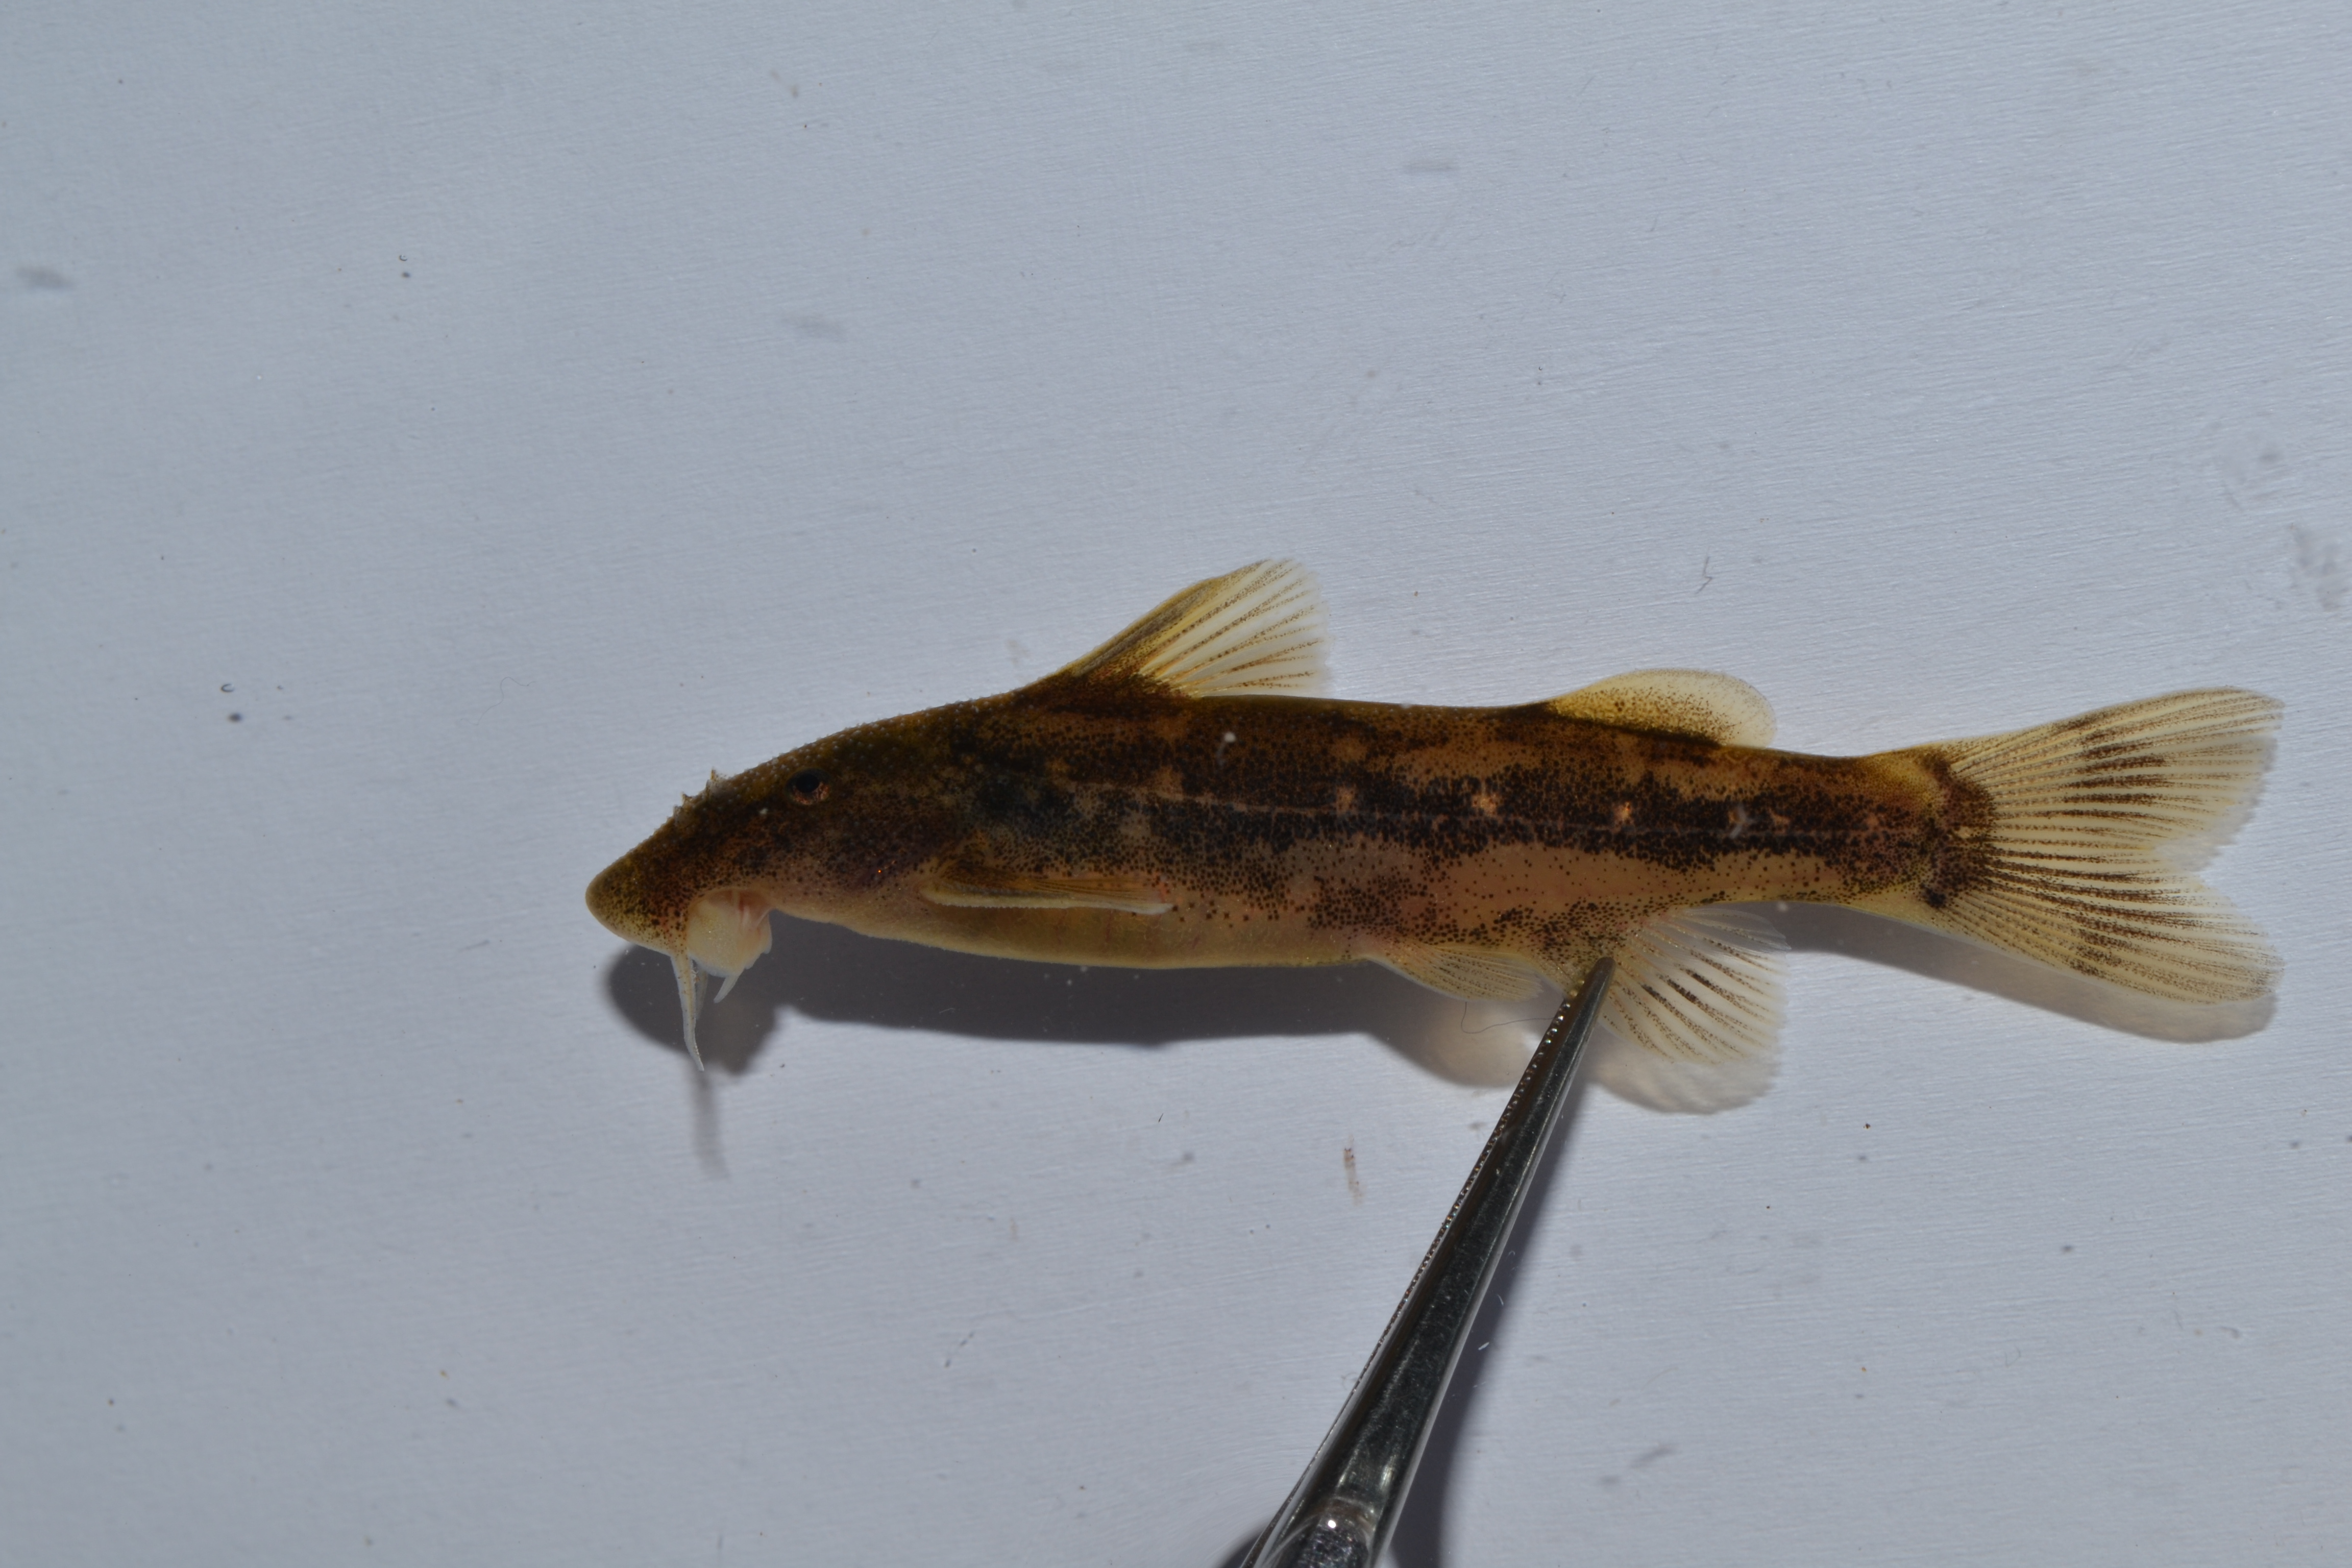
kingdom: Animalia
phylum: Chordata
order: Siluriformes
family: Mochokidae
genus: Chiloglanis
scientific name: Chiloglanis
